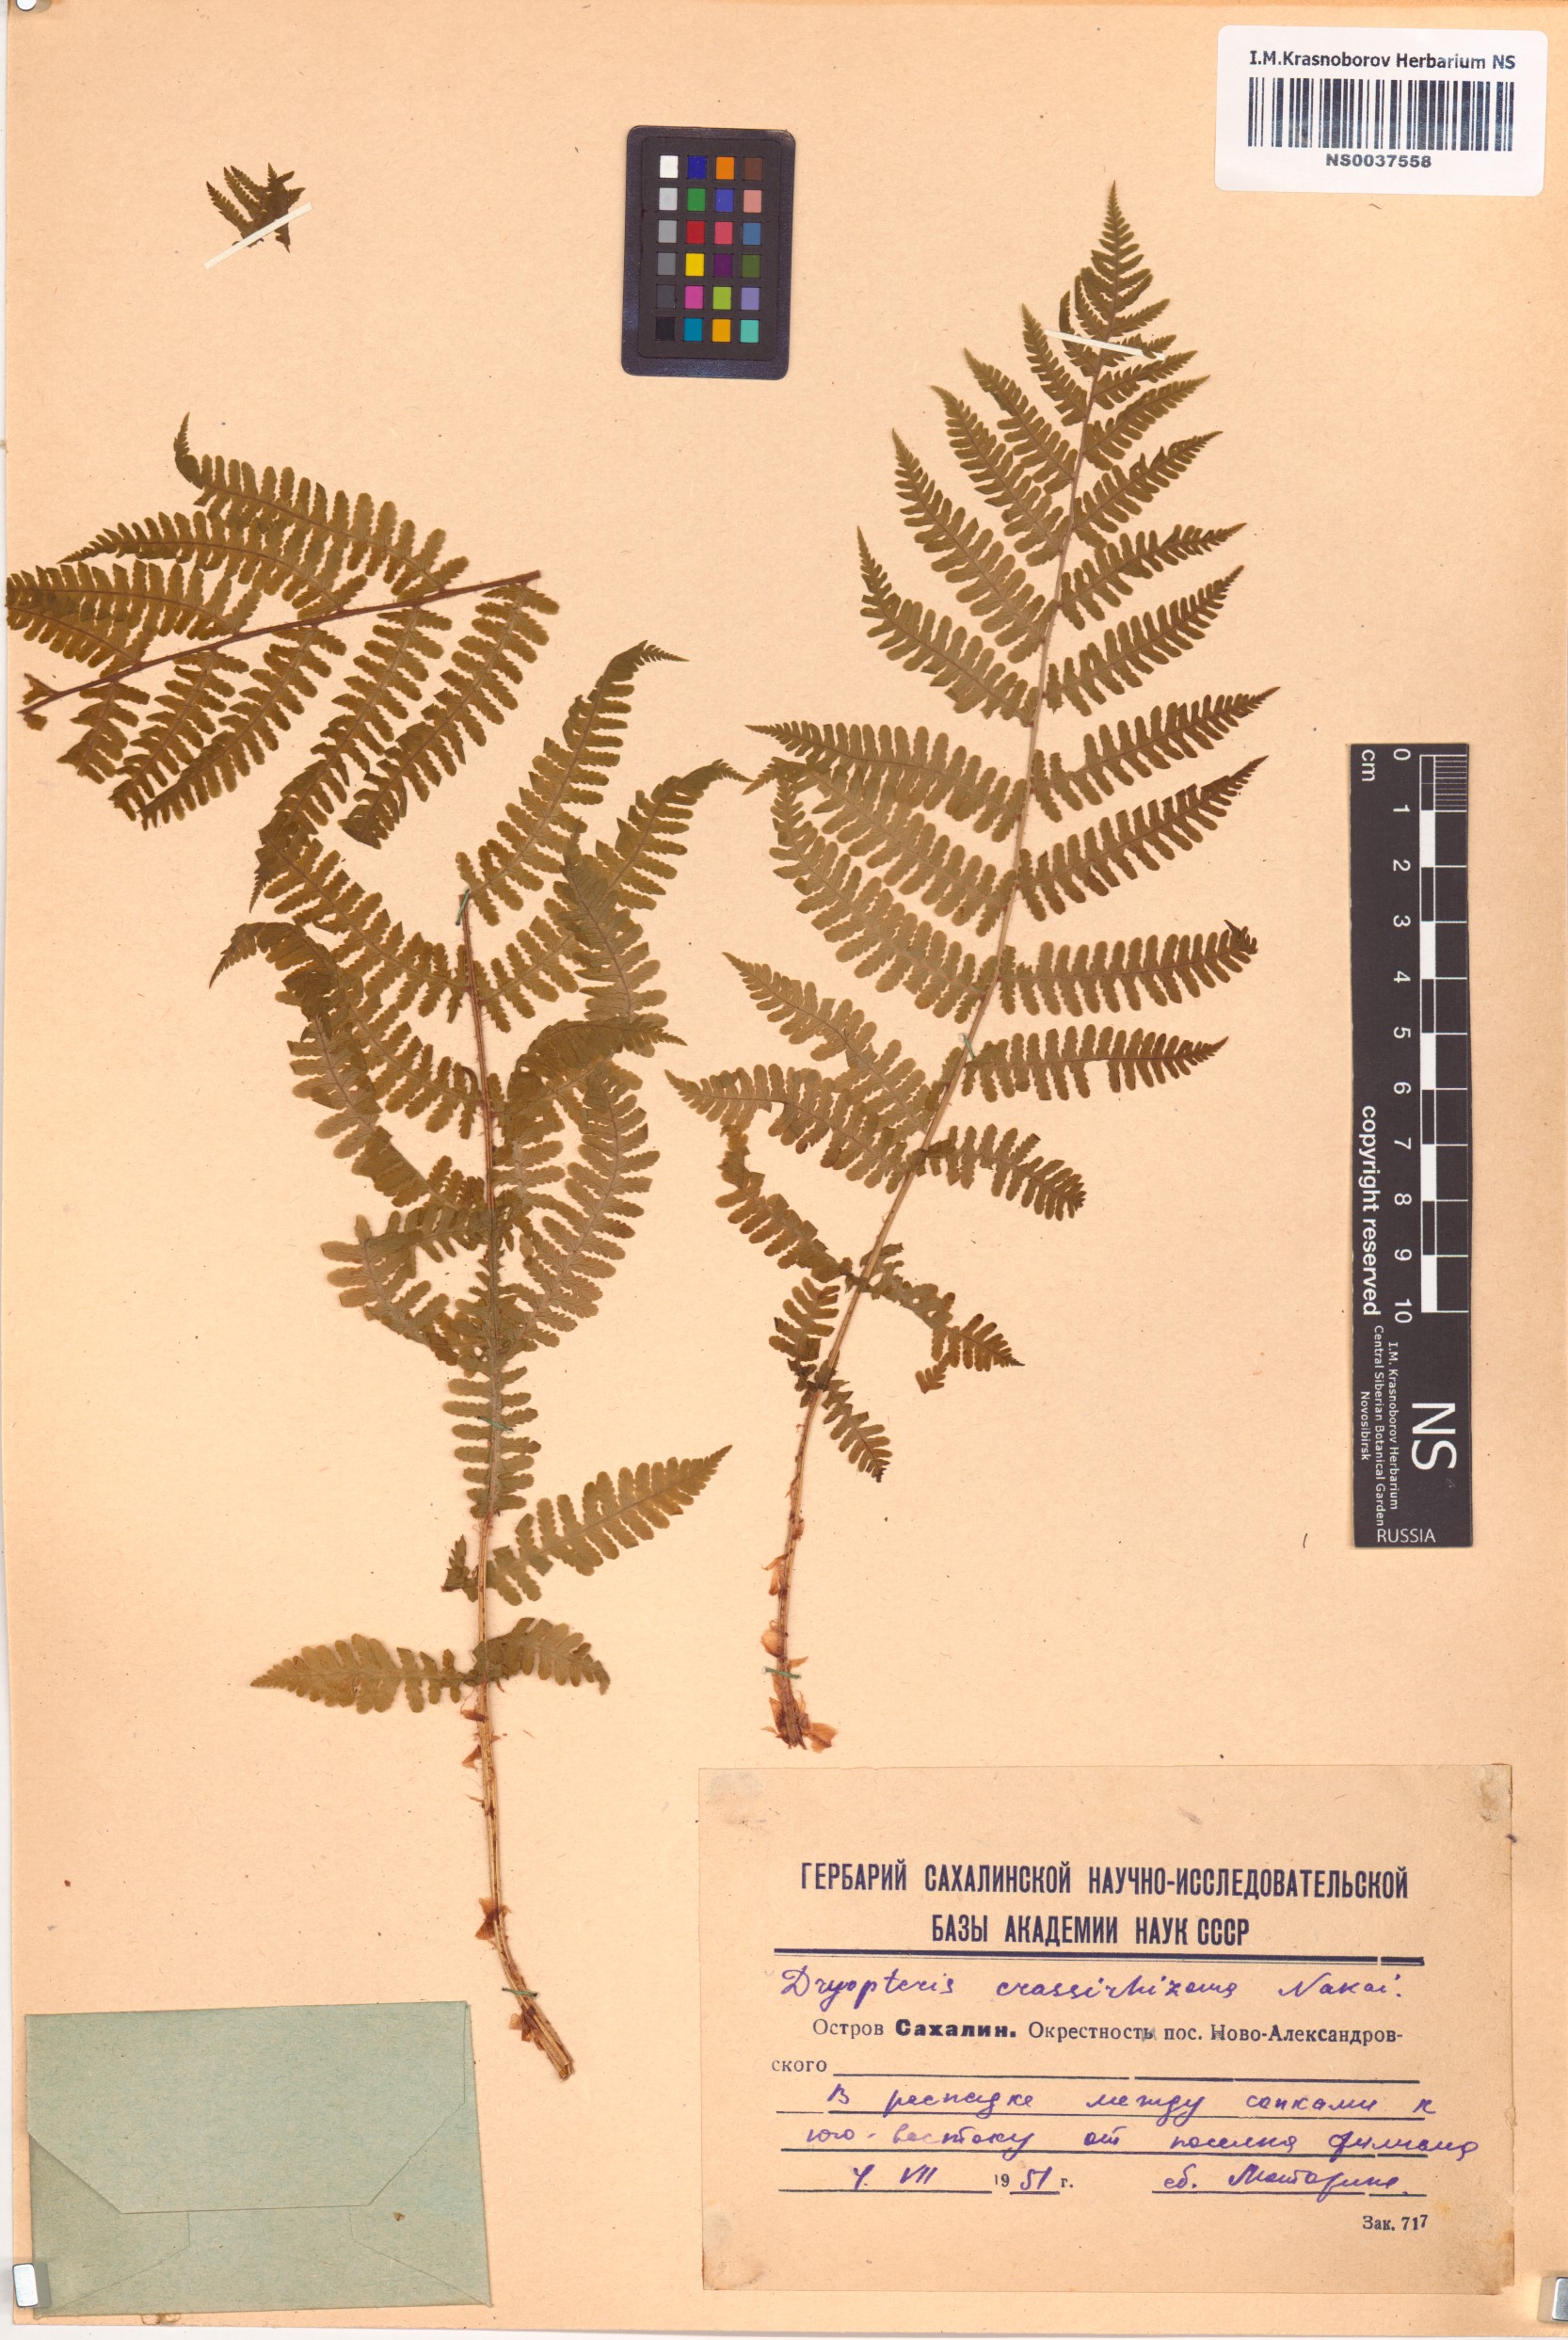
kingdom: Plantae
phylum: Tracheophyta
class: Polypodiopsida
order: Polypodiales
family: Dryopteridaceae
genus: Dryopteris
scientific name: Dryopteris crassirhizoma
